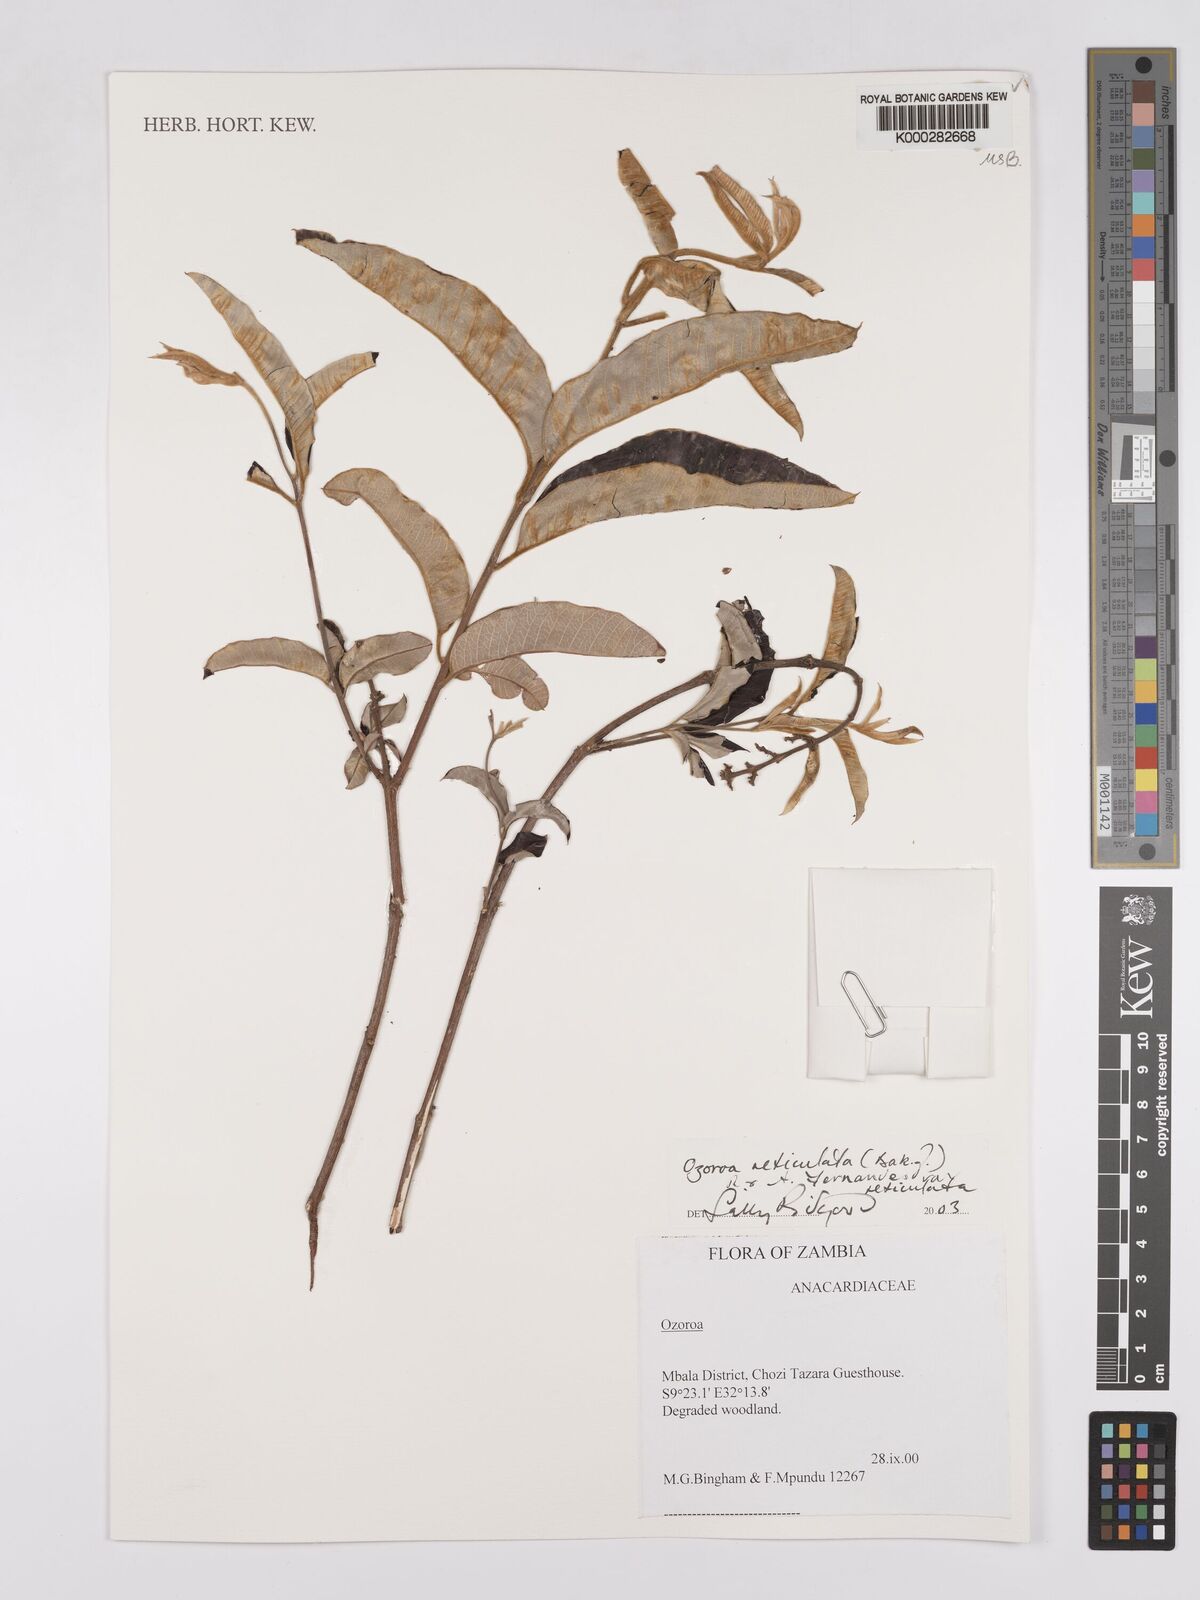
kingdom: Plantae
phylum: Tracheophyta
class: Magnoliopsida
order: Sapindales
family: Anacardiaceae
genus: Ozoroa
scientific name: Ozoroa insignis
